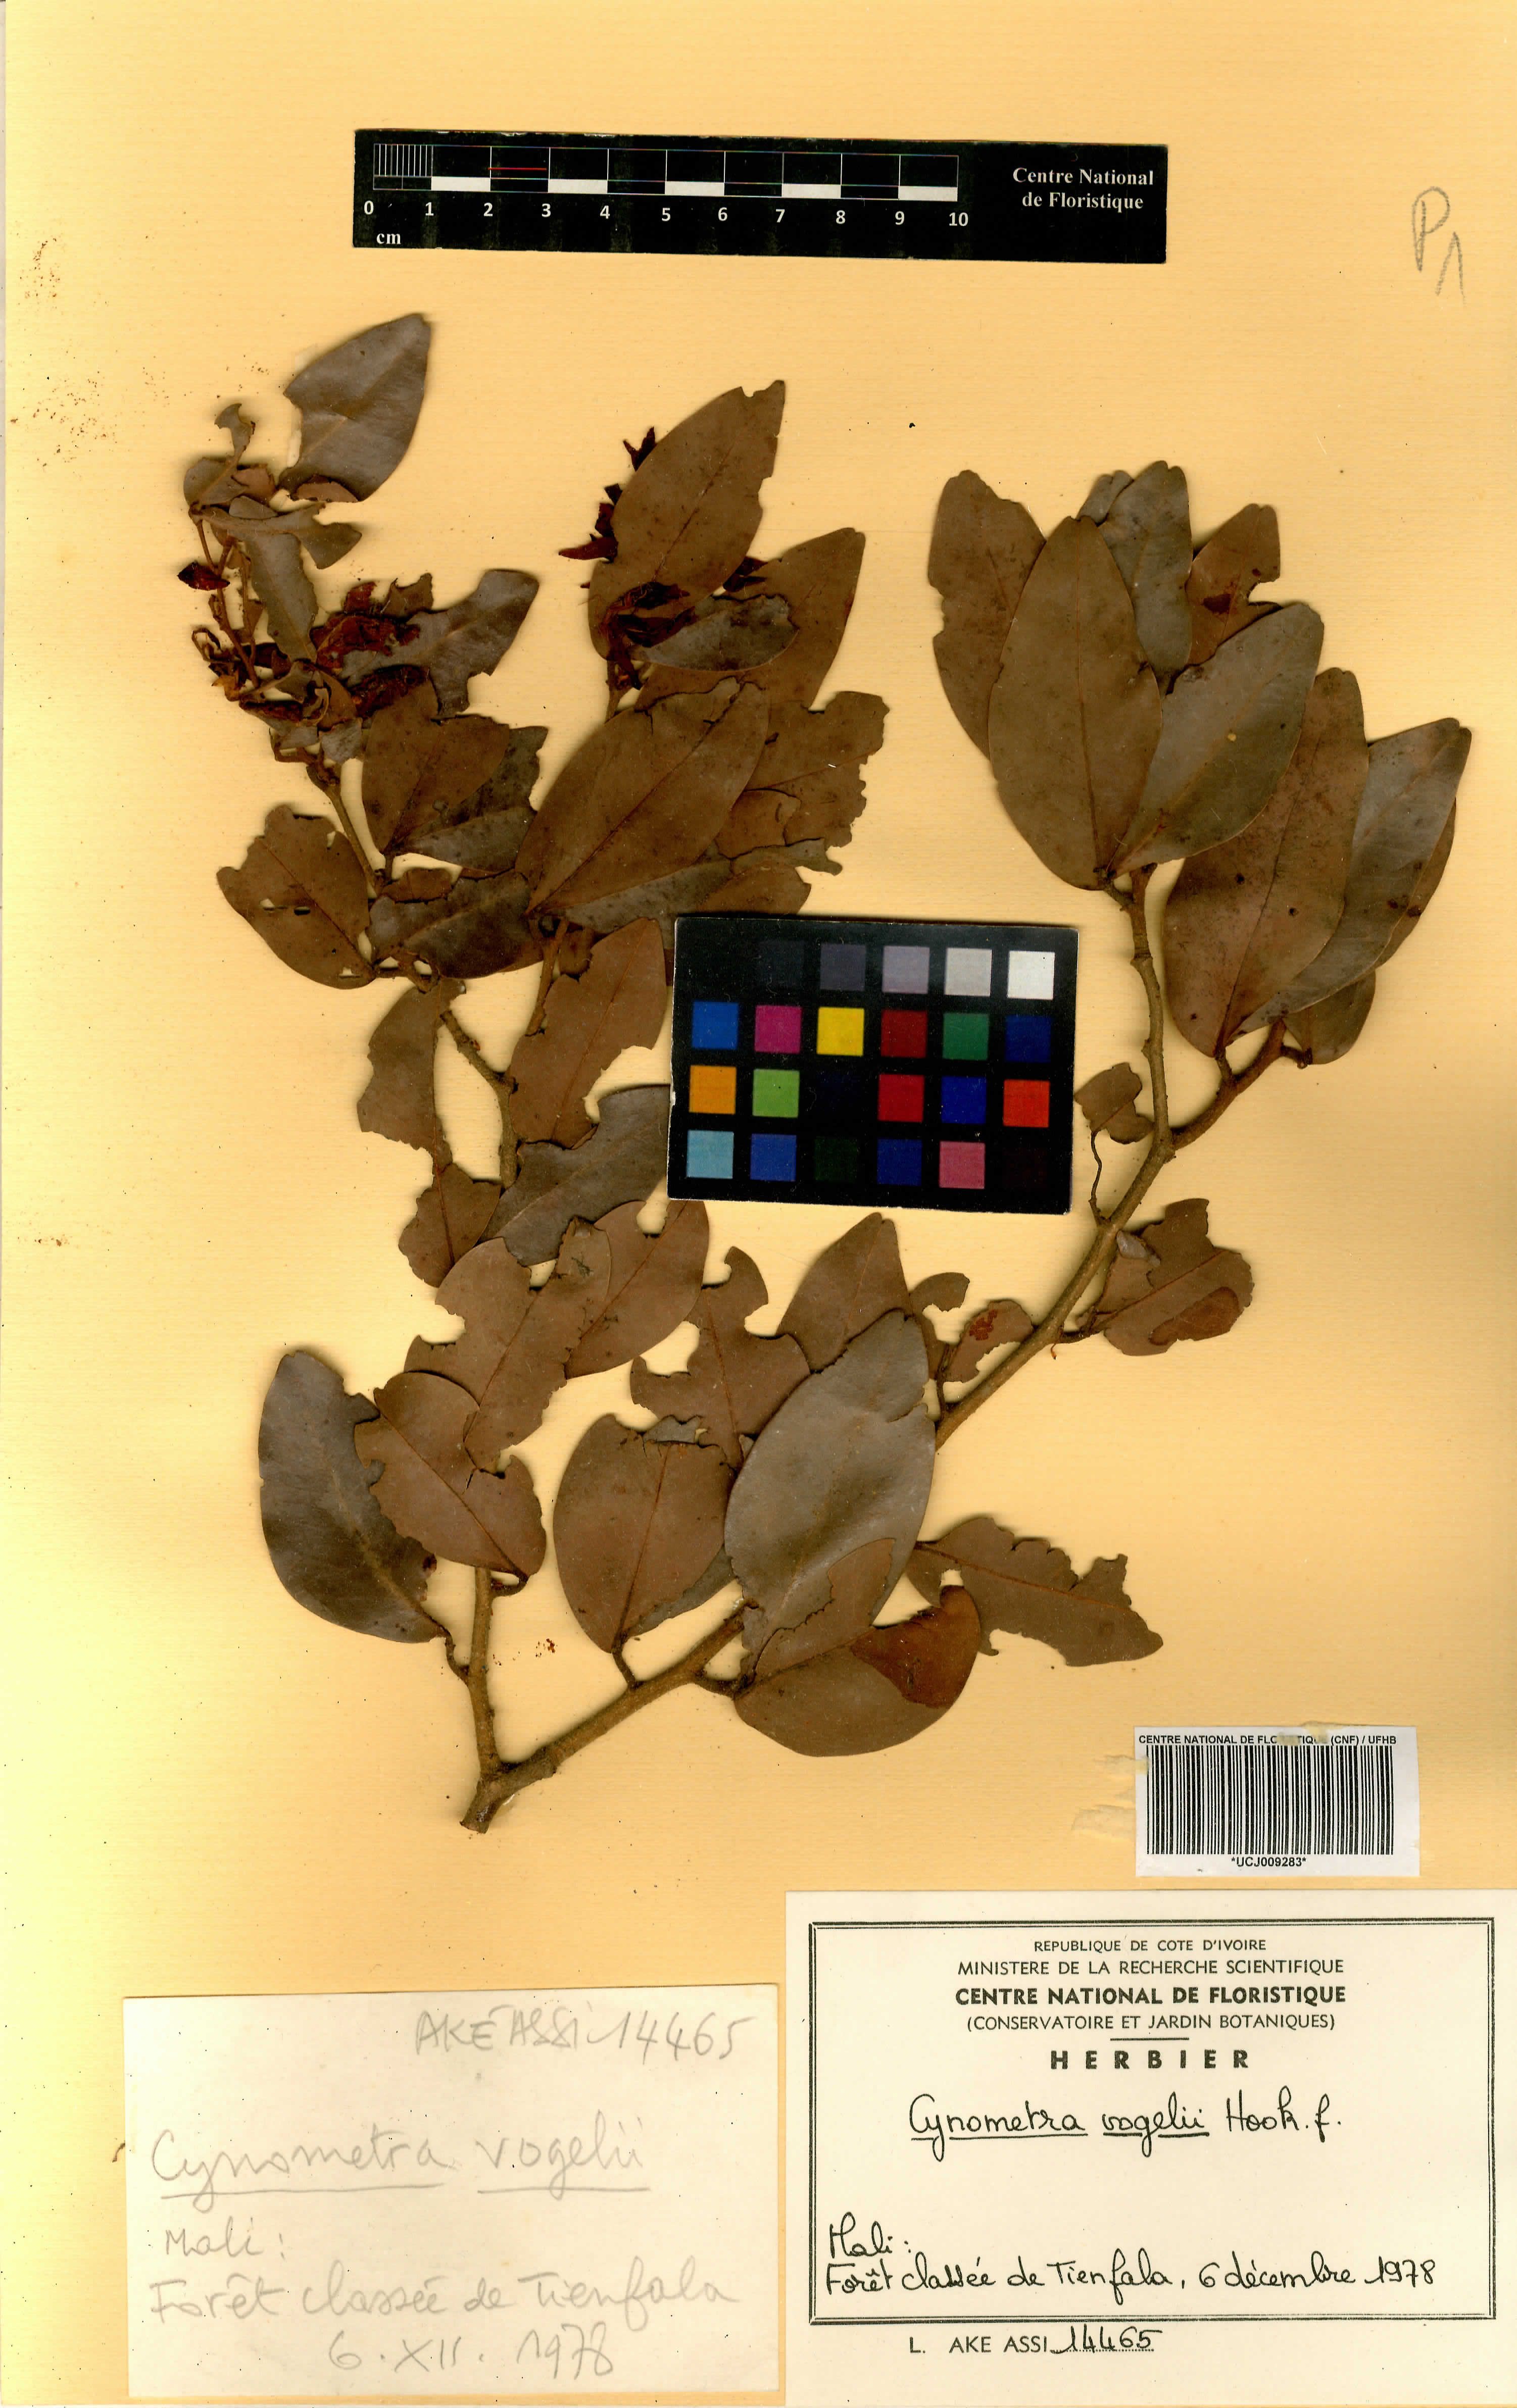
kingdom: Plantae
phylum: Tracheophyta
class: Magnoliopsida
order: Fabales
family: Fabaceae
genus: Cynometra
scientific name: Cynometra vogelii
